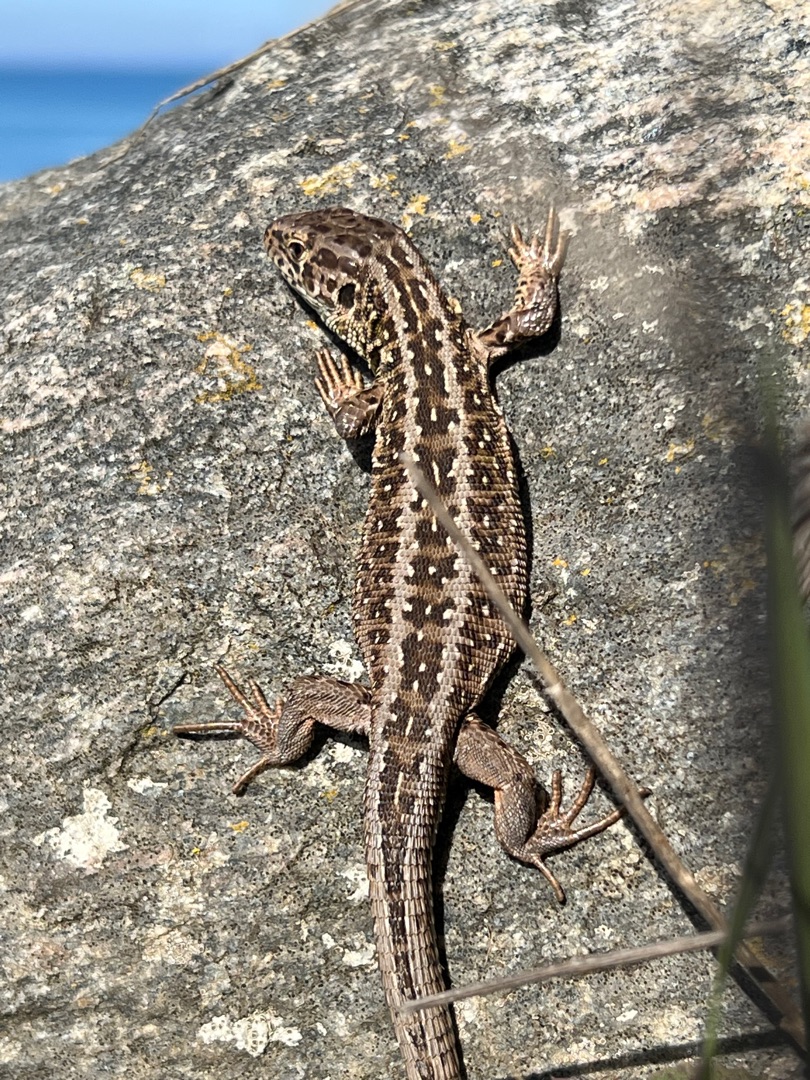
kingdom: Animalia
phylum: Chordata
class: Squamata
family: Lacertidae
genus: Lacerta
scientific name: Lacerta agilis
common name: Markfirben
